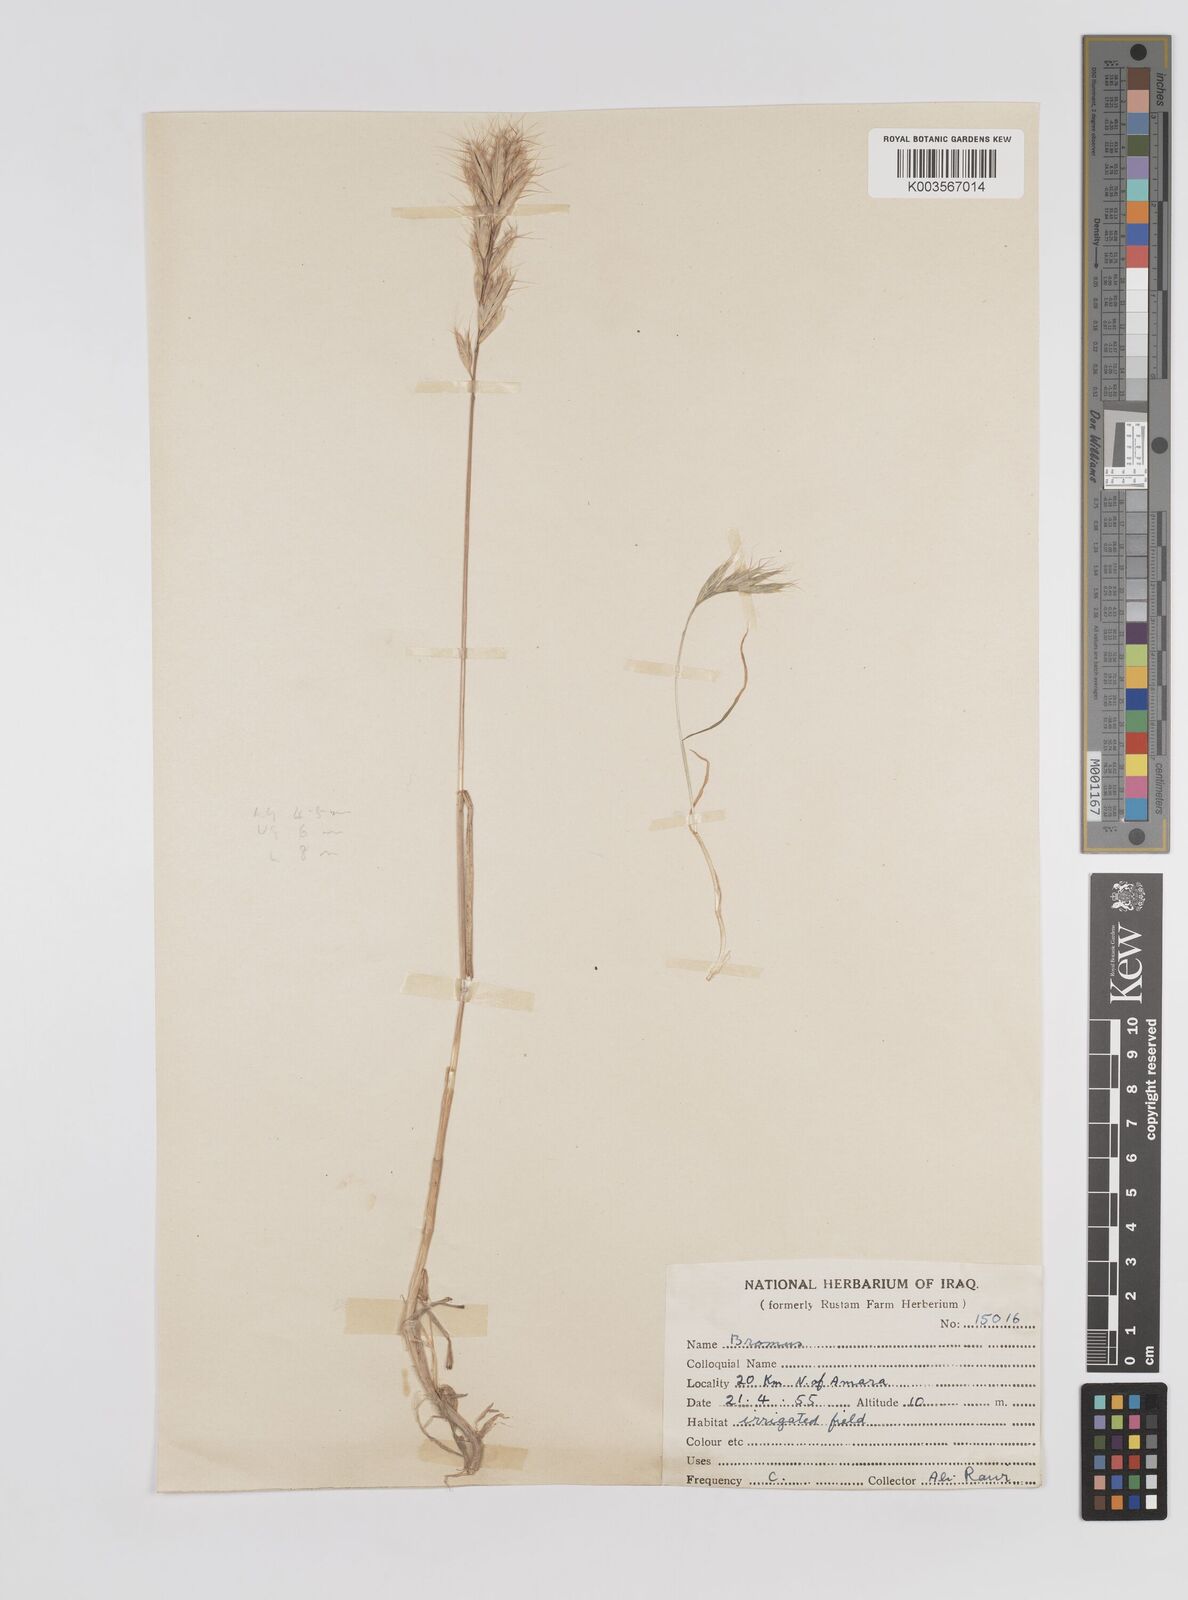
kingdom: Plantae
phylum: Tracheophyta
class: Liliopsida
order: Poales
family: Poaceae
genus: Bromus
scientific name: Bromus danthoniae
